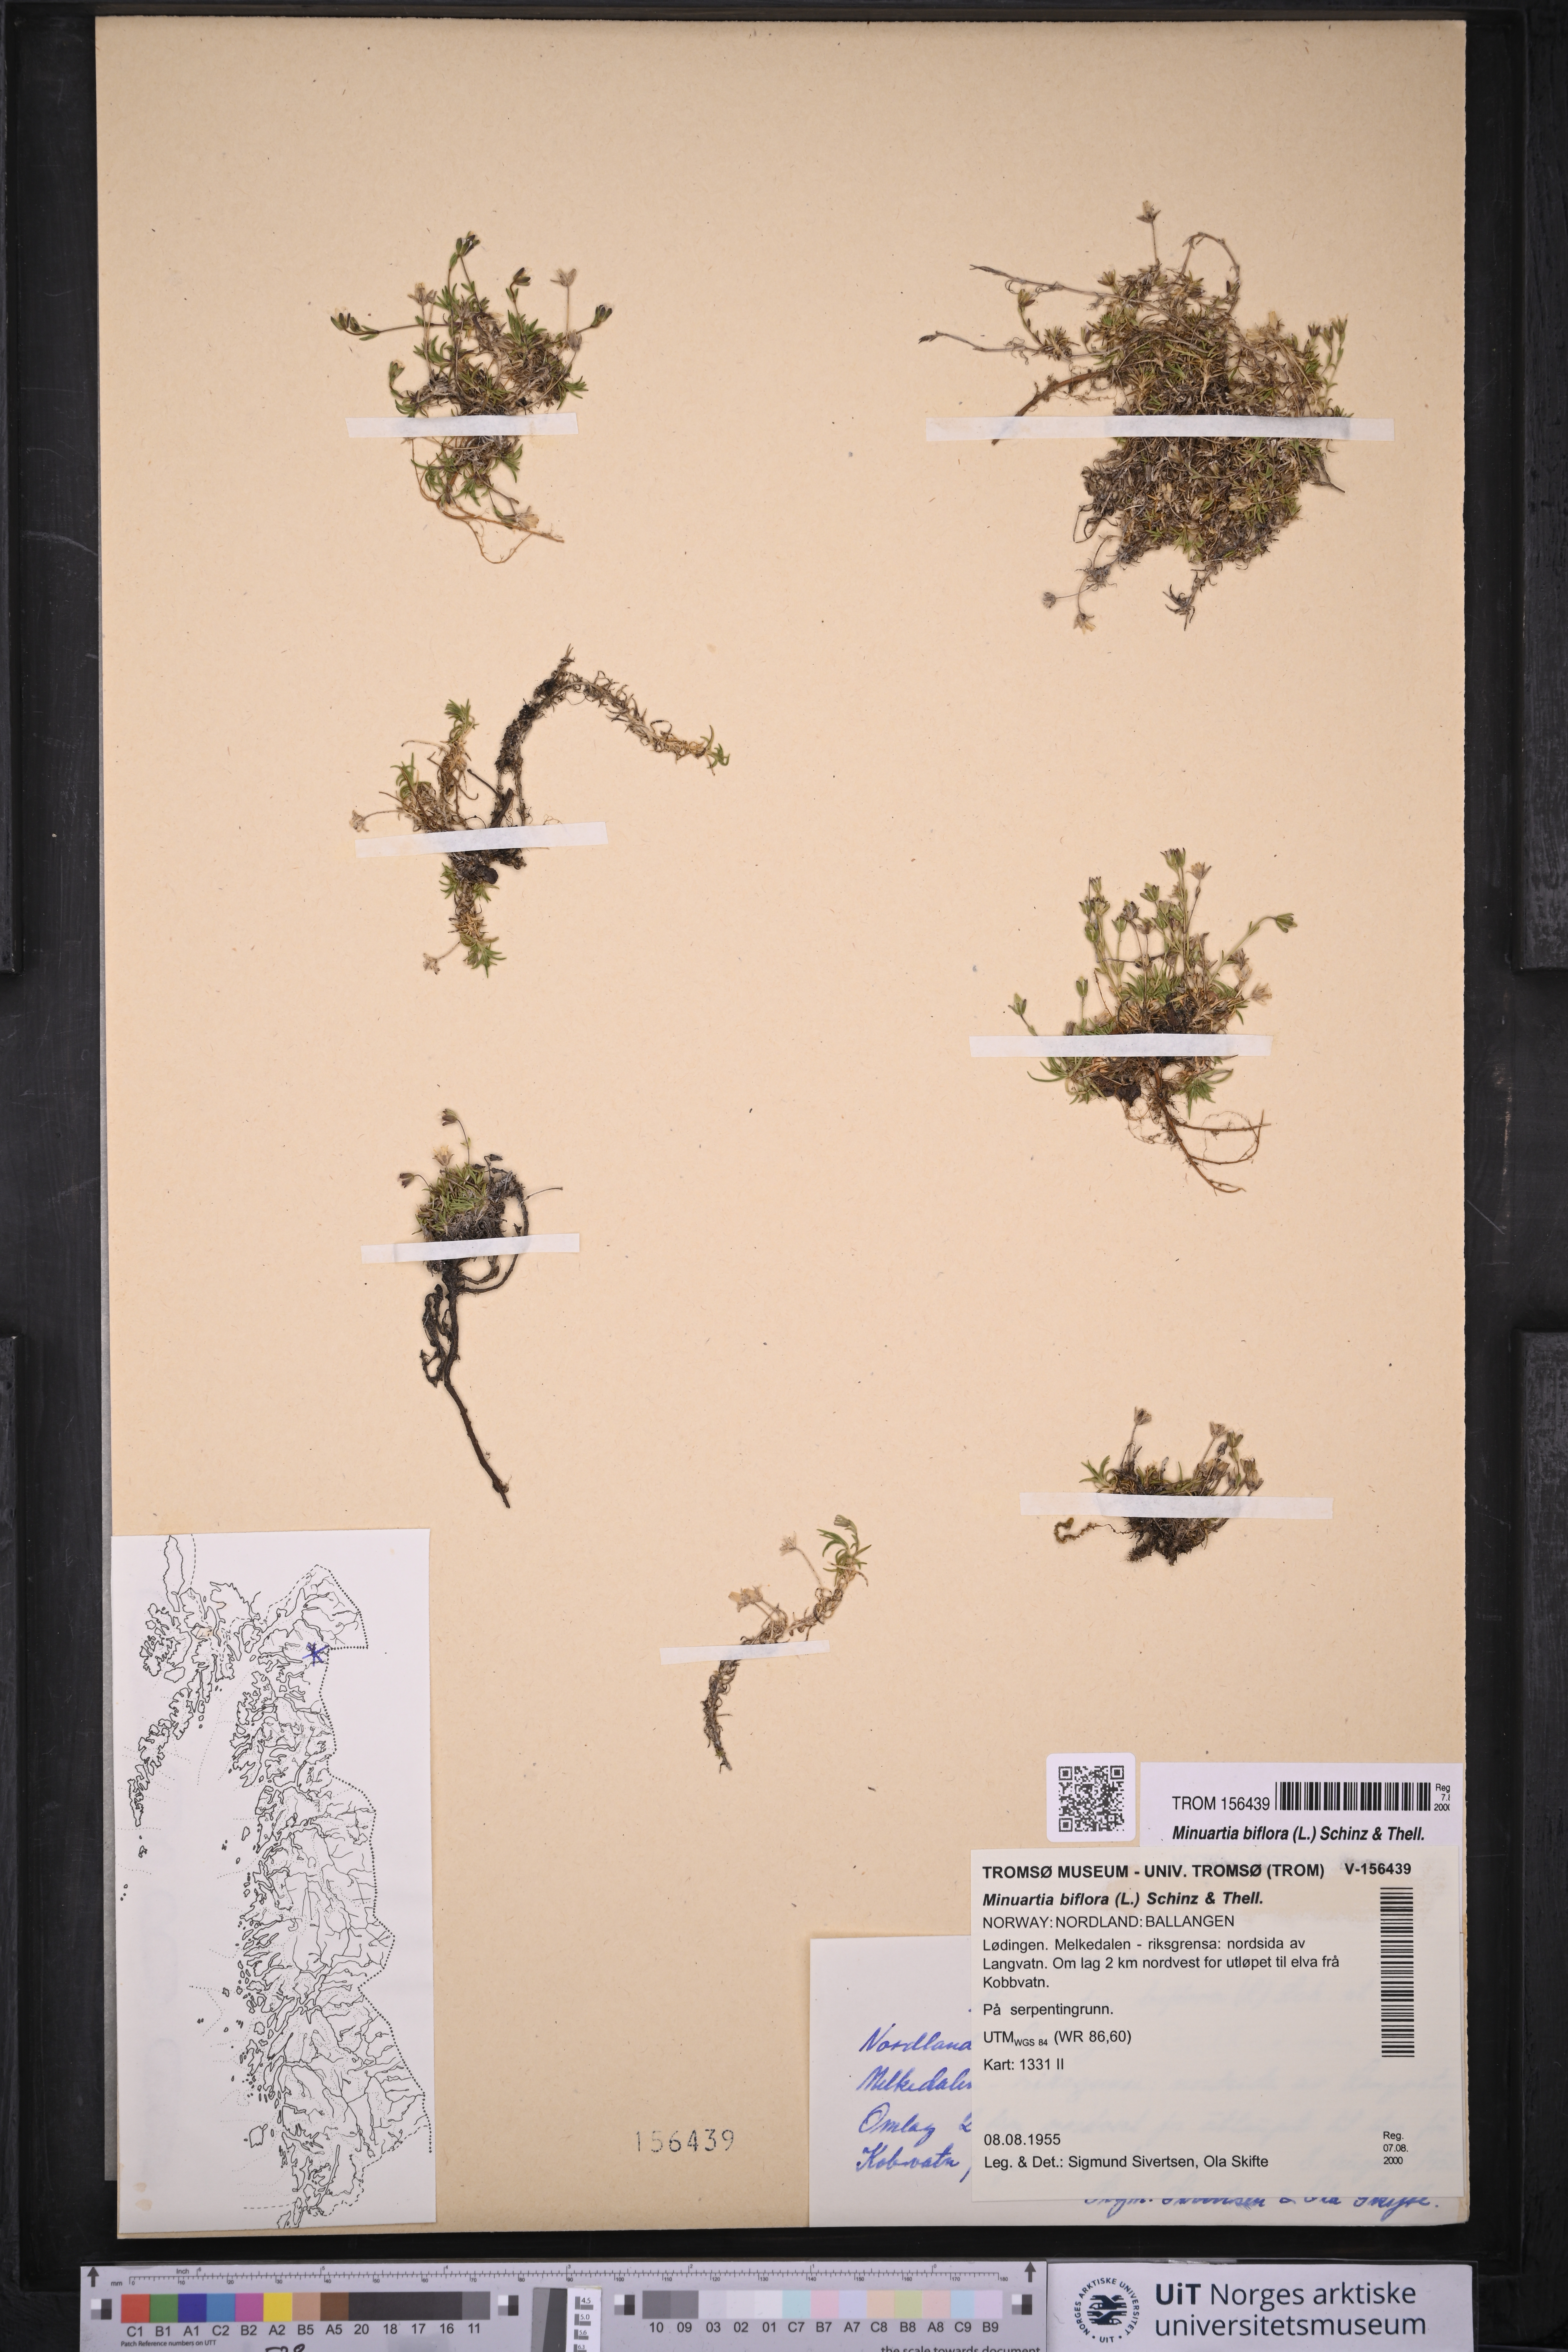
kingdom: Plantae
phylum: Tracheophyta
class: Magnoliopsida
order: Caryophyllales
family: Caryophyllaceae
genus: Cherleria
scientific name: Cherleria biflora
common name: Mountain sandwort
